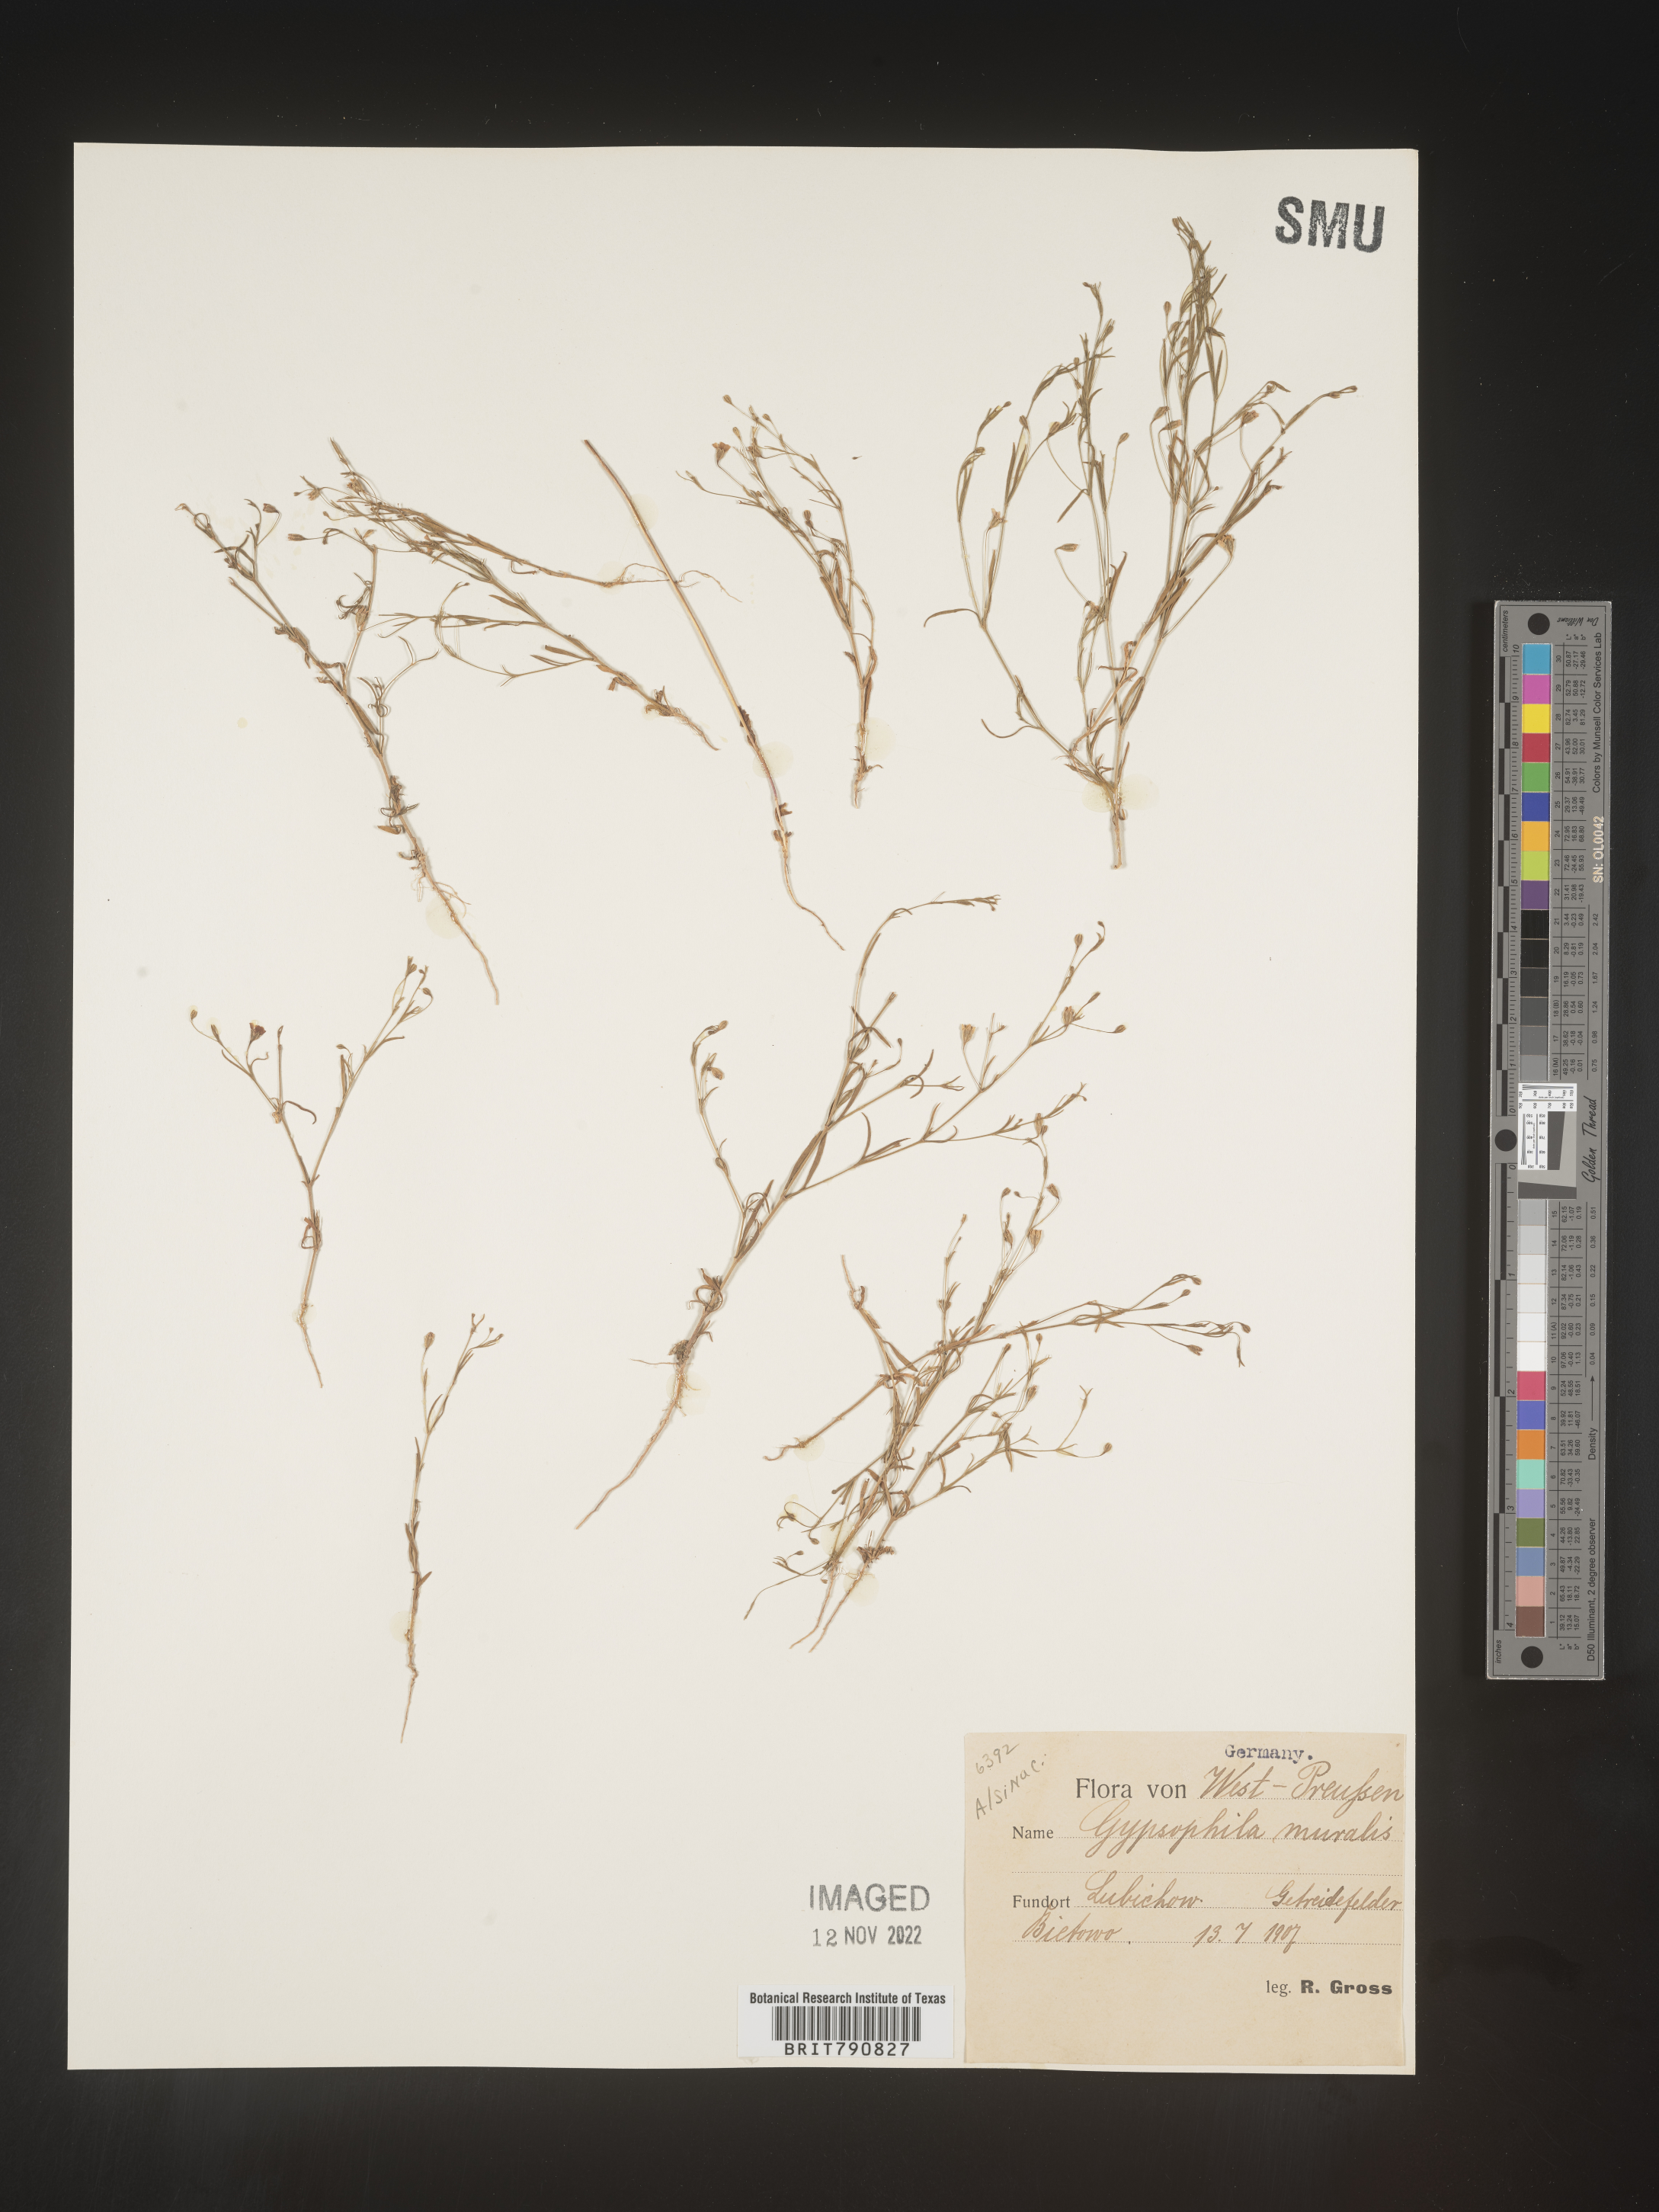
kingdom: Plantae
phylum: Tracheophyta
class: Magnoliopsida
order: Caryophyllales
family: Caryophyllaceae
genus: Gypsophila
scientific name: Gypsophila
